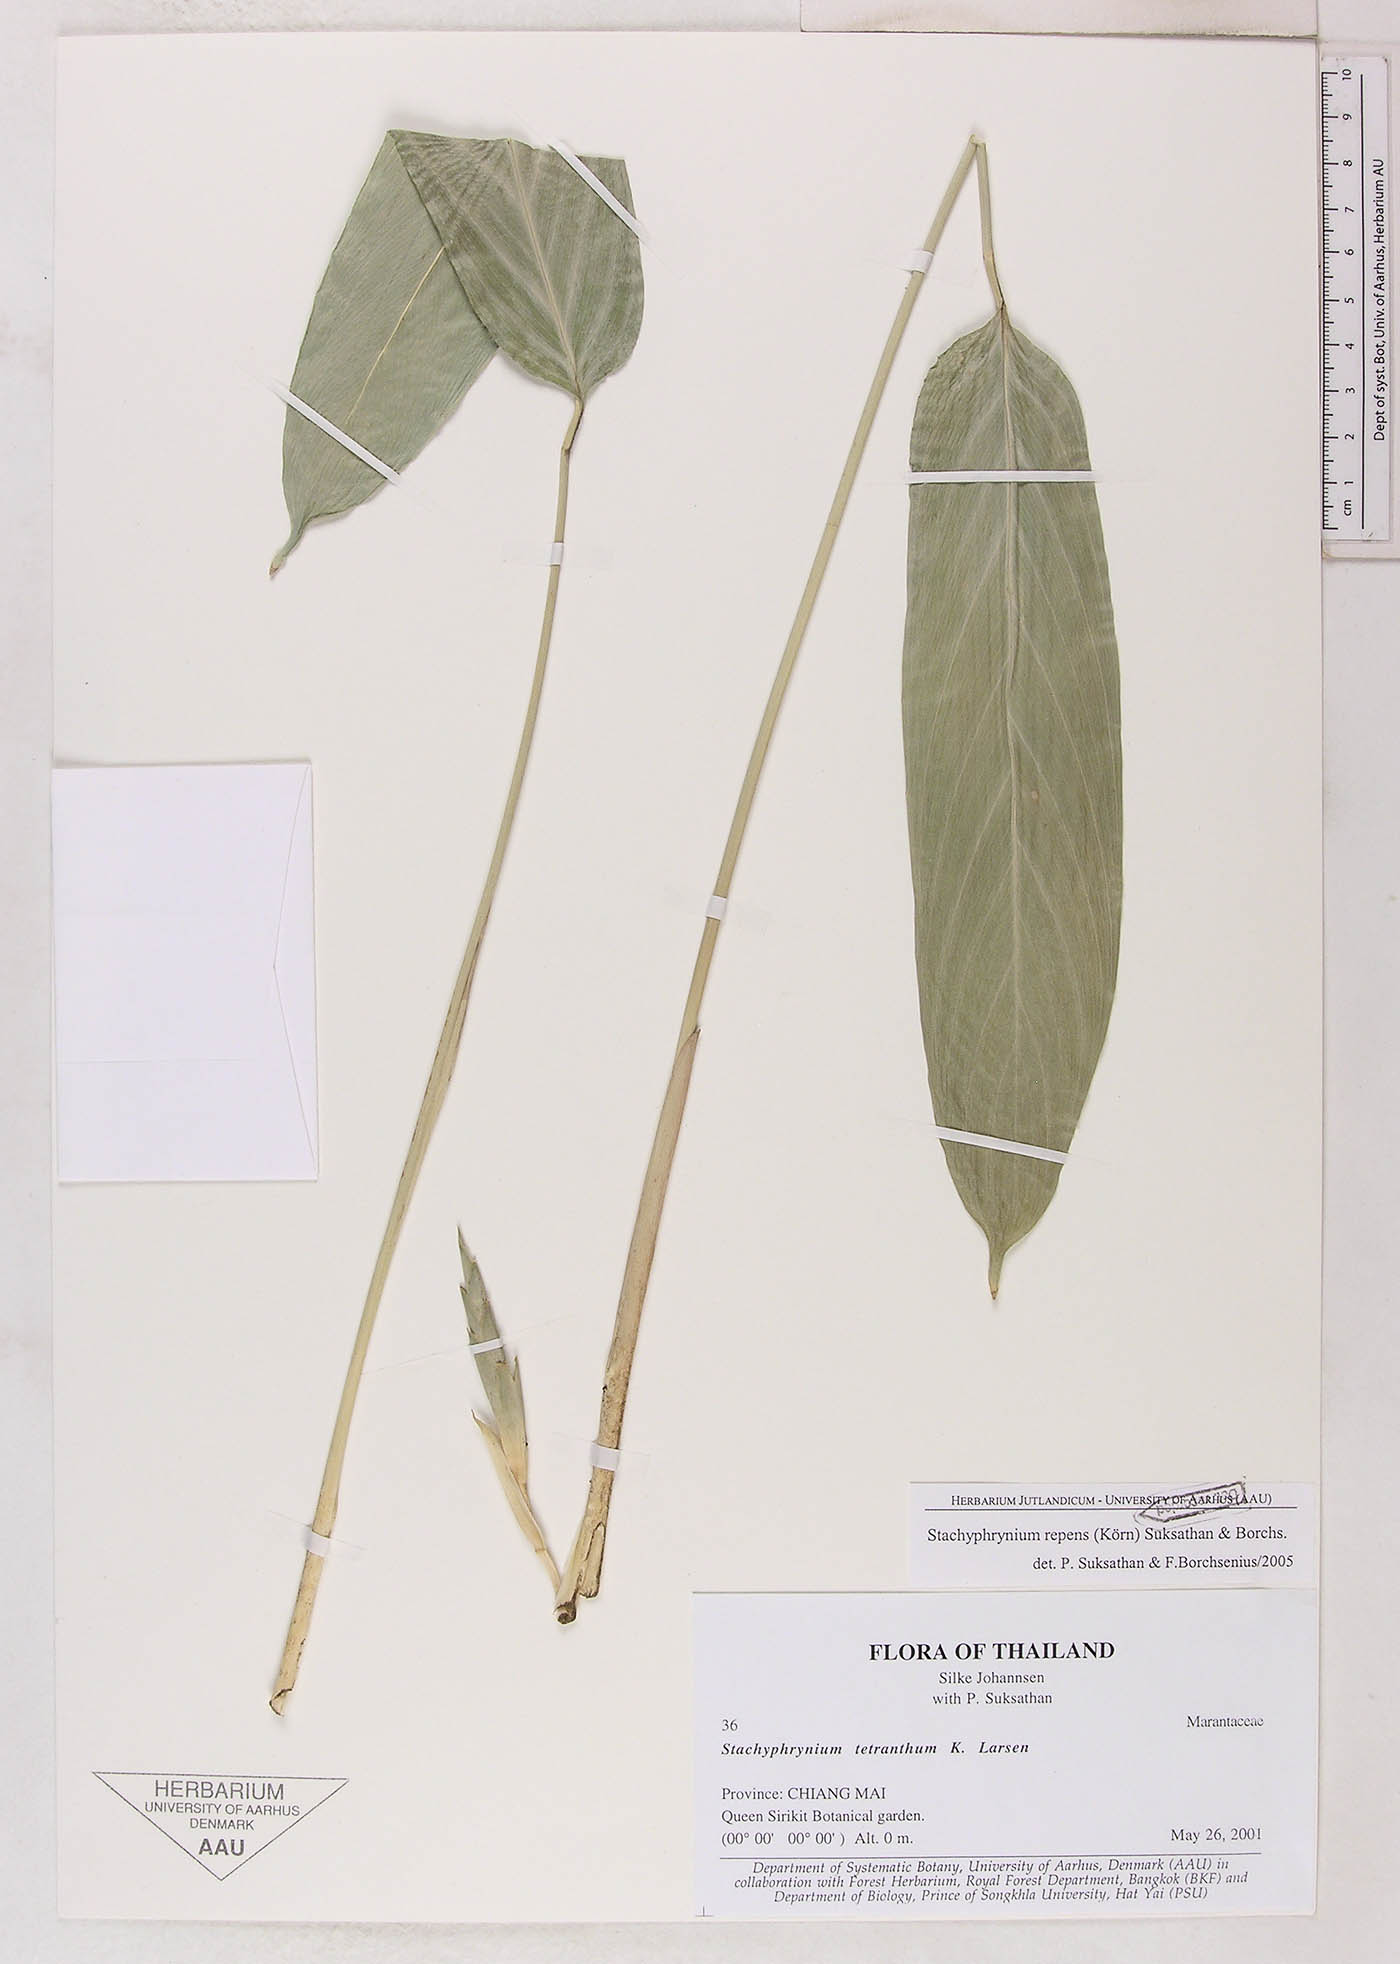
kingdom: Plantae
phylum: Tracheophyta
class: Liliopsida
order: Zingiberales
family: Marantaceae
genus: Stachyphrynium
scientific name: Stachyphrynium repens
